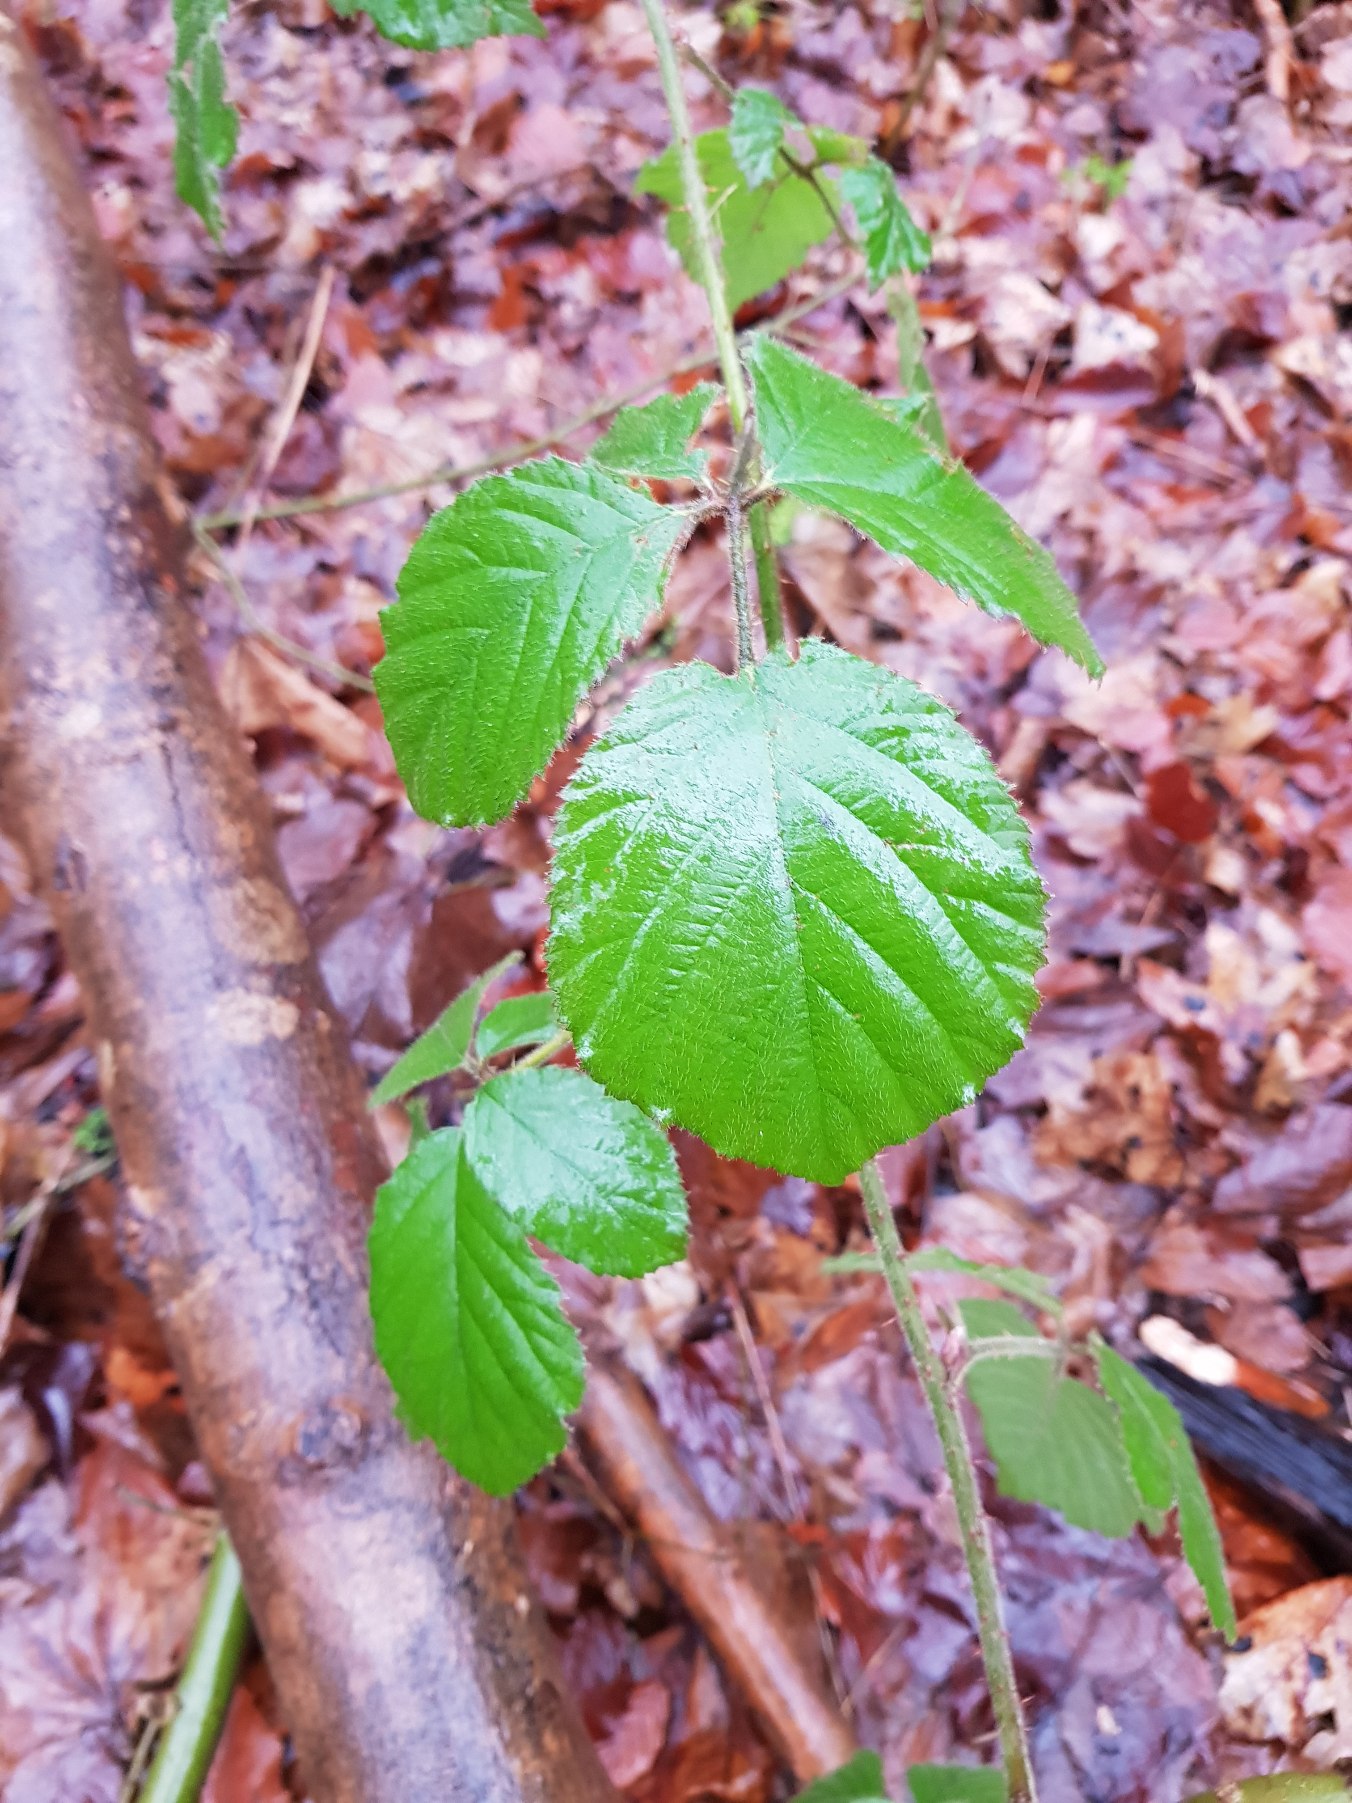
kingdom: Plantae
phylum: Tracheophyta
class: Magnoliopsida
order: Rosales
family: Rosaceae
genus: Rubus
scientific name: Rubus vestitus
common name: Rundbladet brombær
